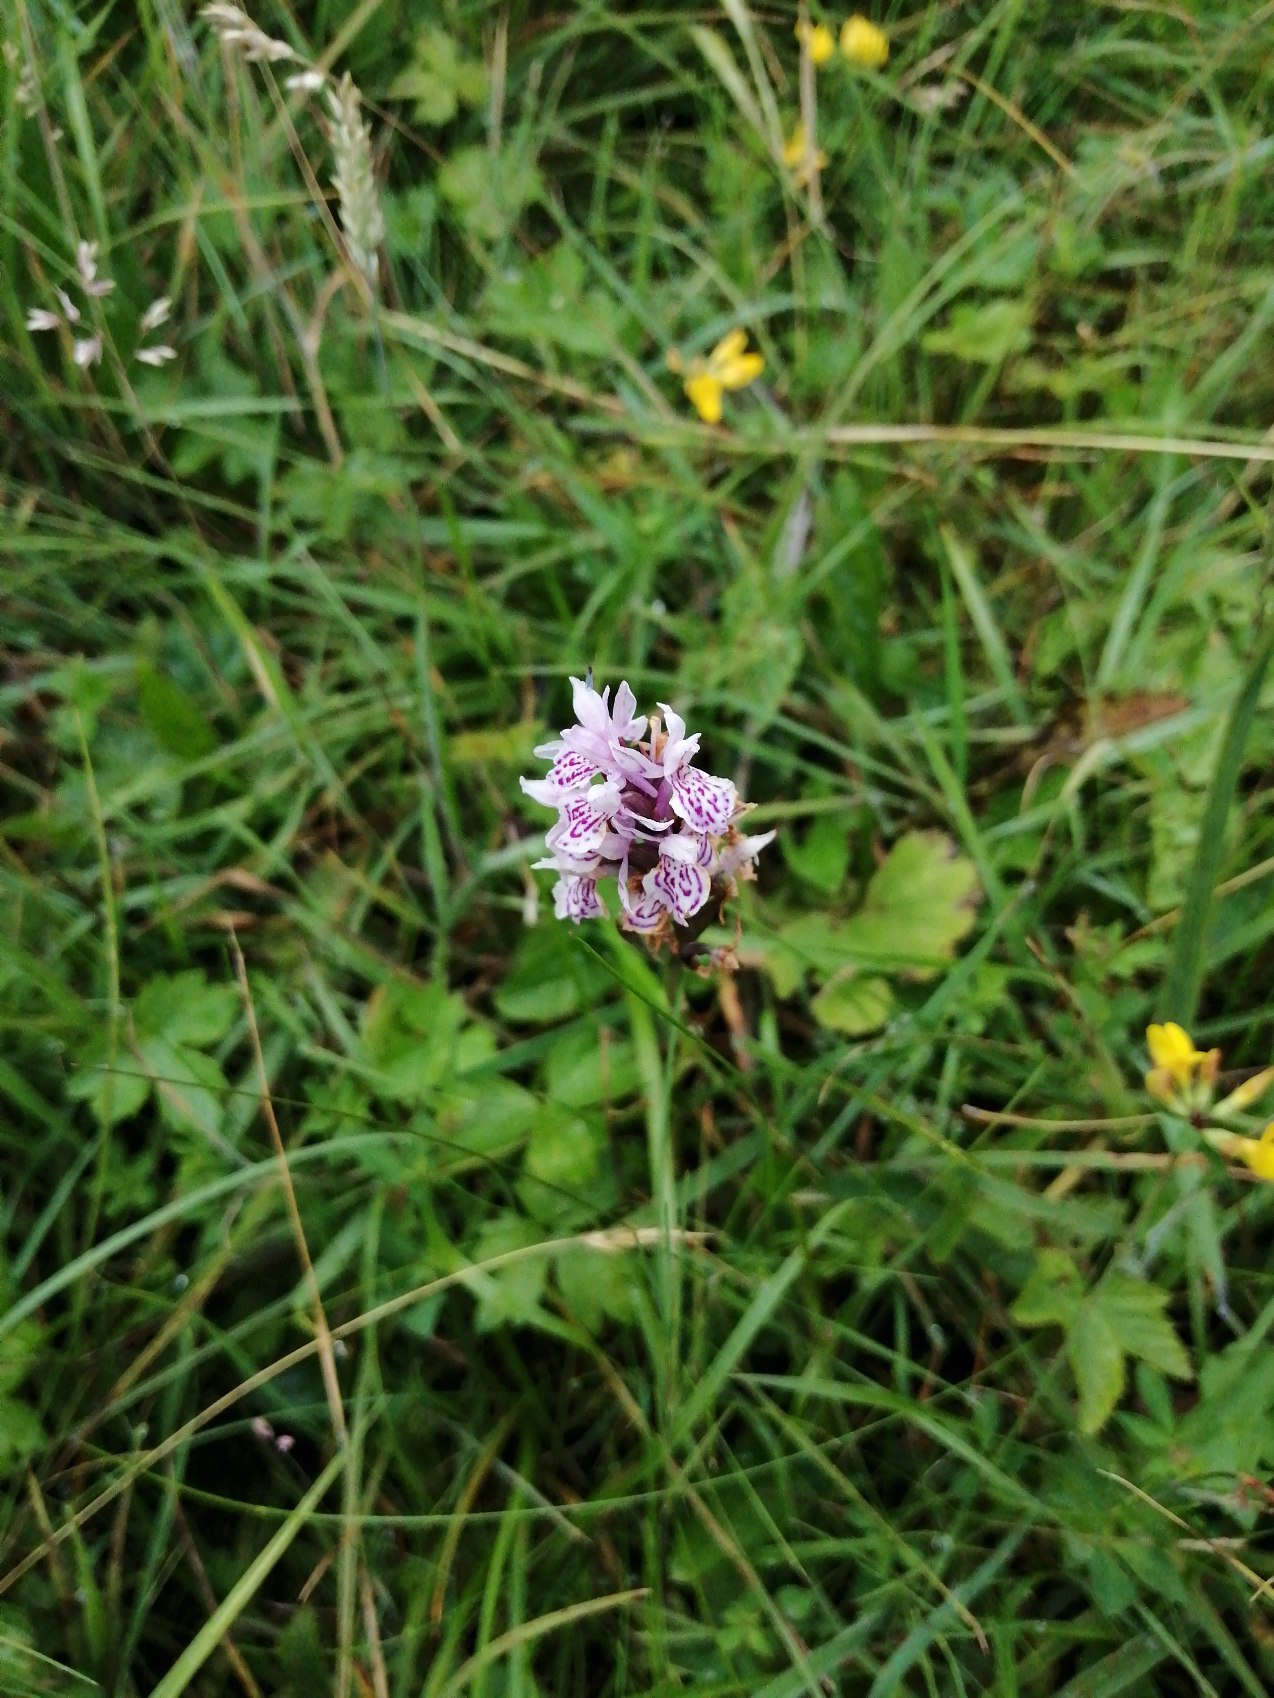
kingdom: Plantae
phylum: Tracheophyta
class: Liliopsida
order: Asparagales
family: Orchidaceae
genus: Dactylorhiza
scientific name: Dactylorhiza maculata
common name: Plettet gøgeurt (underart)
